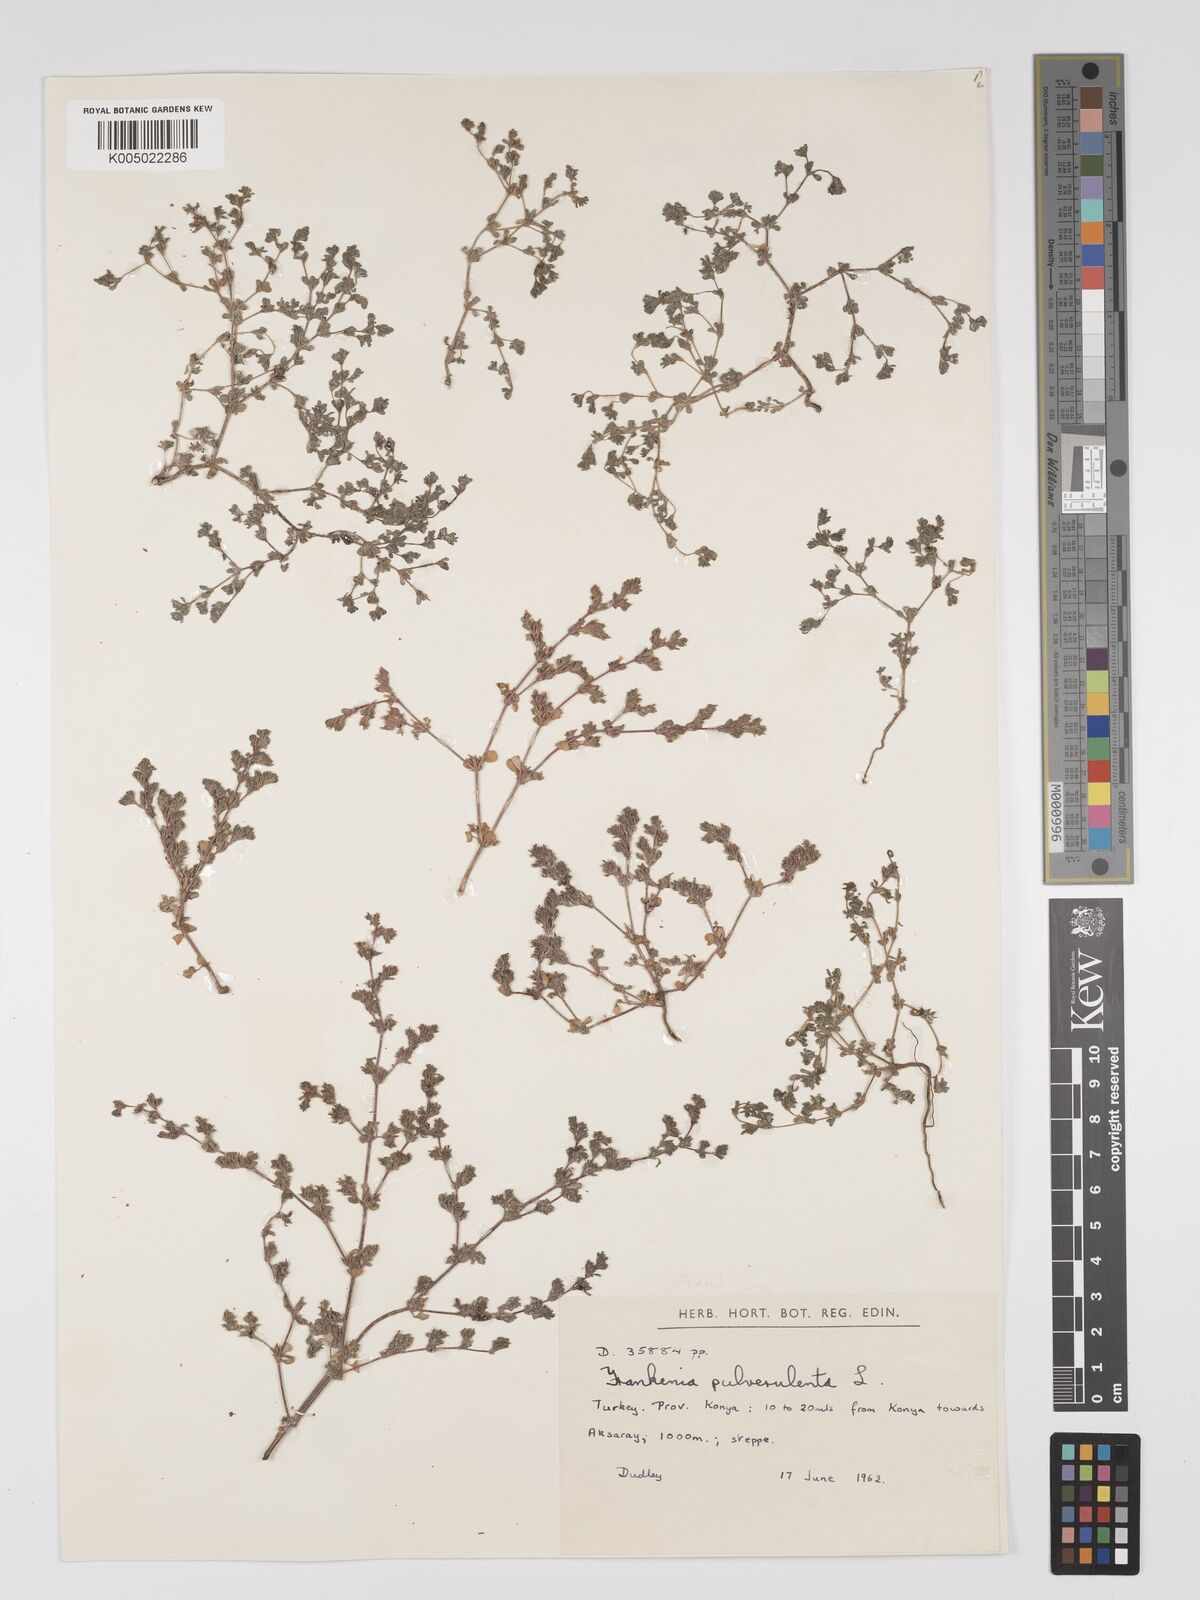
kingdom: Plantae
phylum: Tracheophyta
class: Magnoliopsida
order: Caryophyllales
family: Frankeniaceae
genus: Frankenia
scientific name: Frankenia pulverulenta
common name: European seaheath
